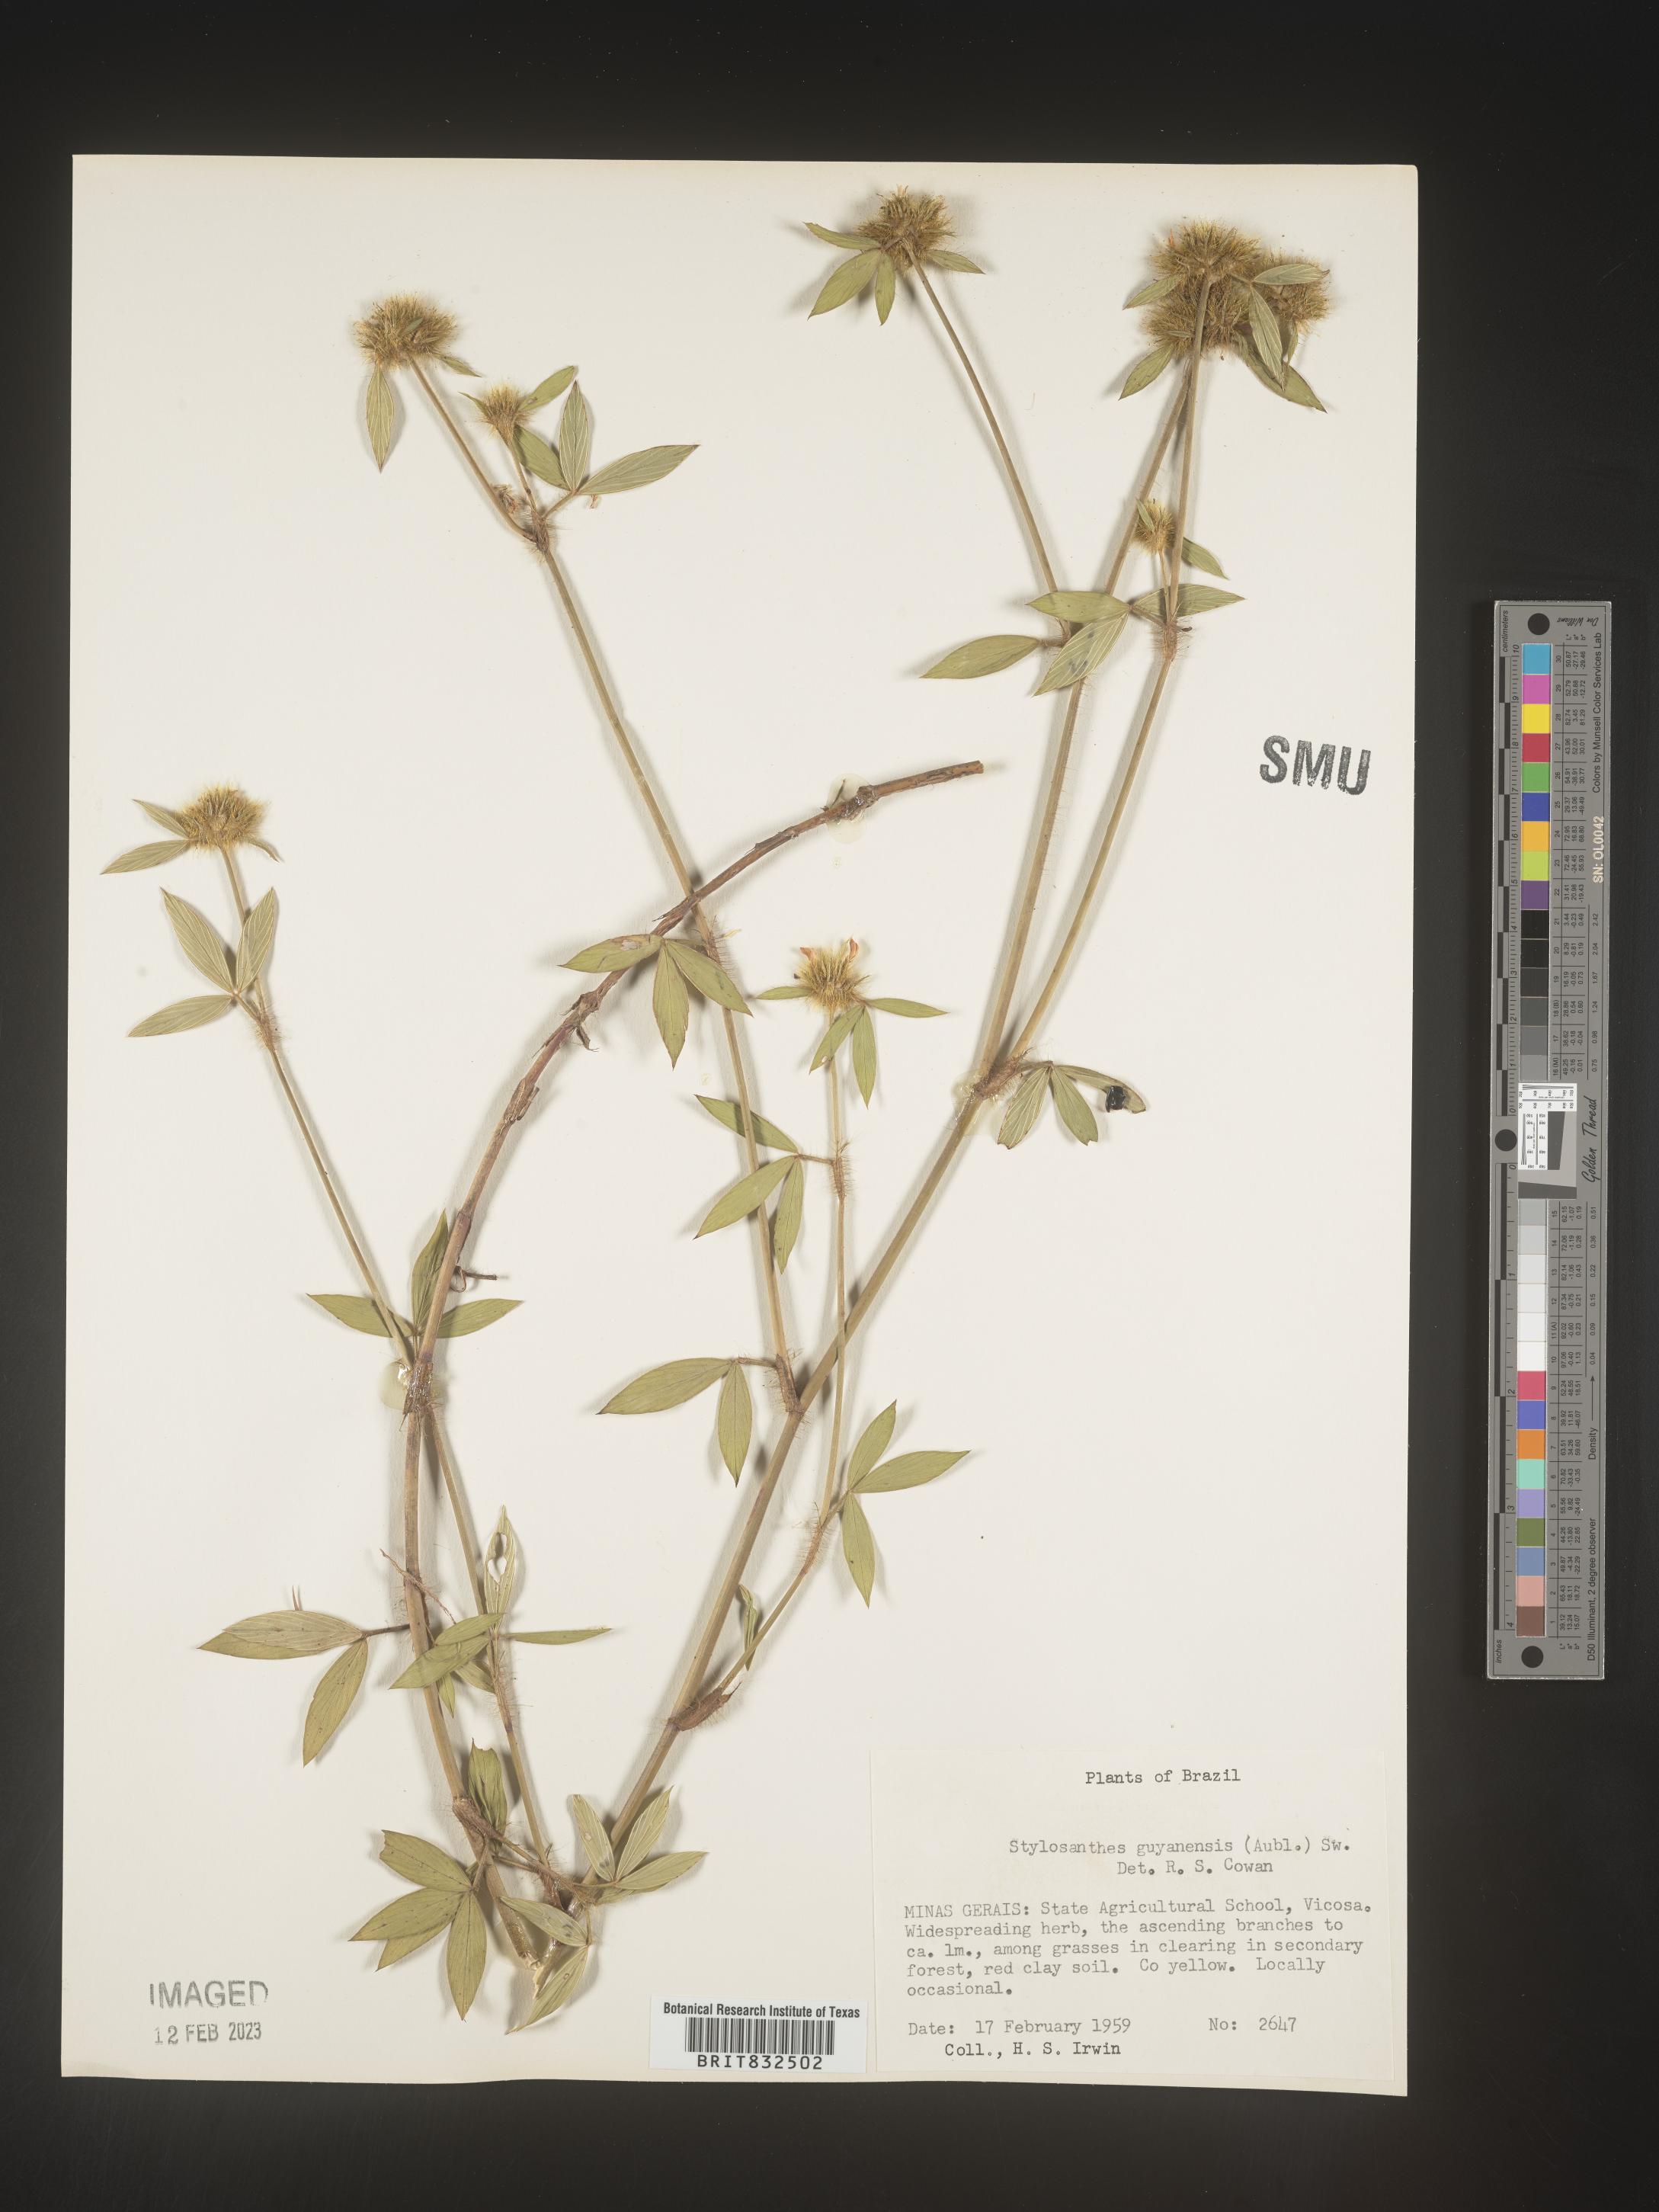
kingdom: Plantae
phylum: Tracheophyta
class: Magnoliopsida
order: Fabales
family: Fabaceae
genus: Stylosanthes
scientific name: Stylosanthes
